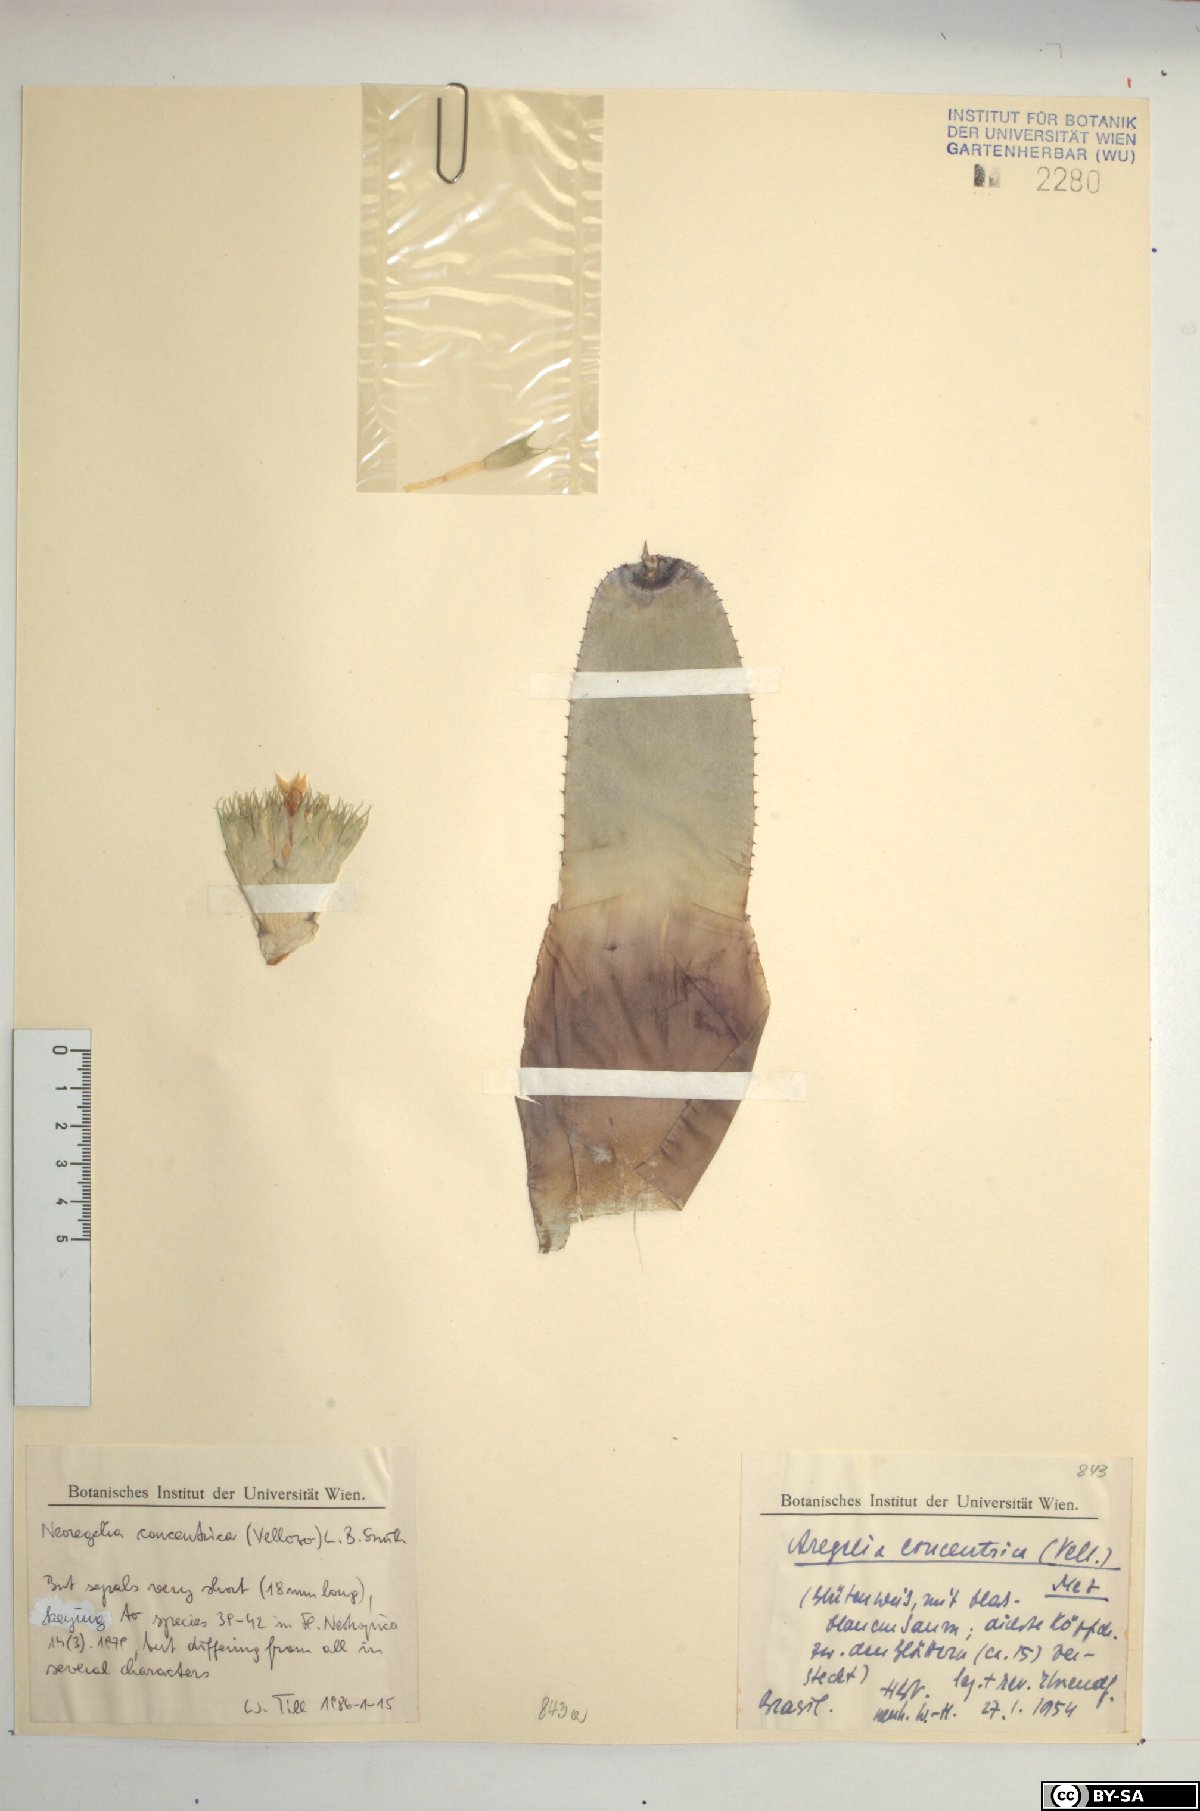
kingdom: Plantae
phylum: Tracheophyta
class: Liliopsida
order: Poales
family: Bromeliaceae
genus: Neoregelia
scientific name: Neoregelia concentrica
